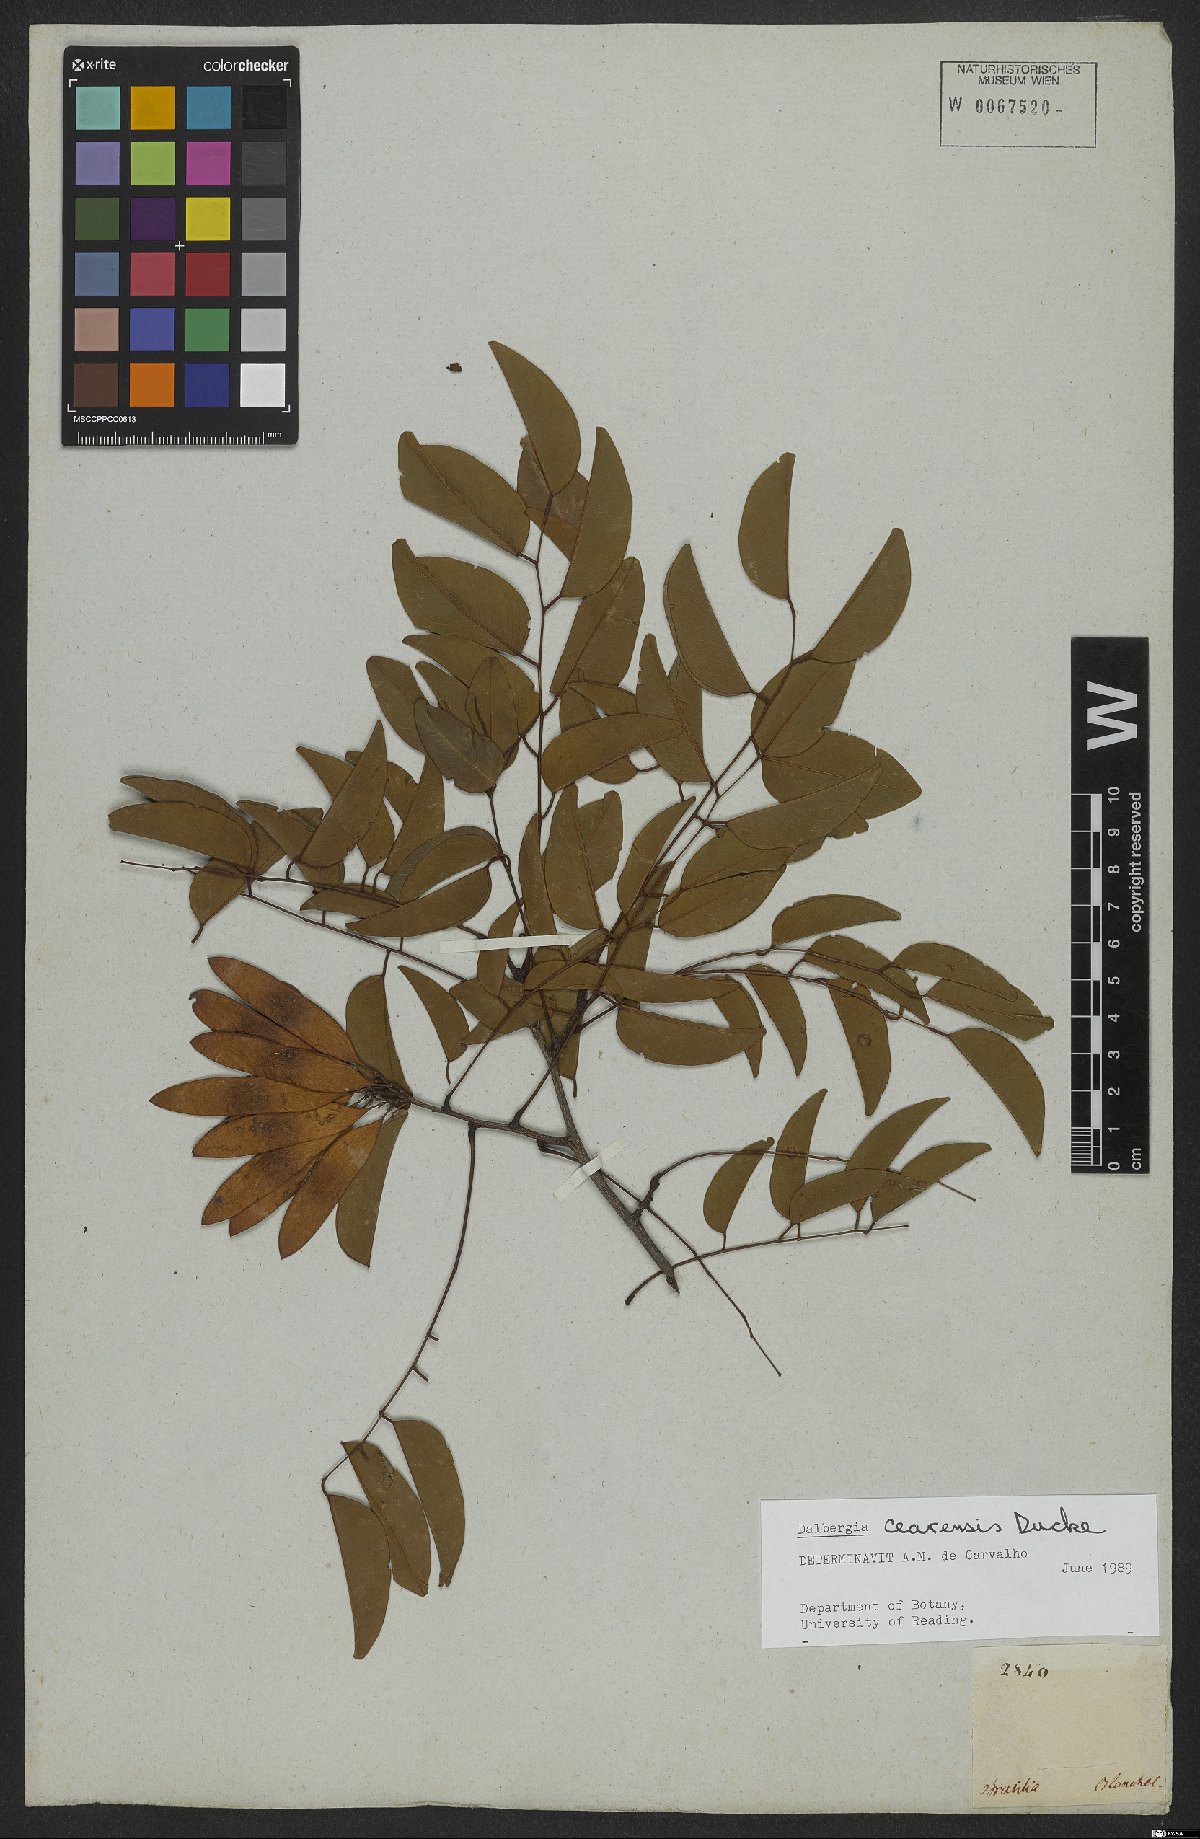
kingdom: Plantae
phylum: Tracheophyta
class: Magnoliopsida
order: Fabales
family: Fabaceae
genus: Dalbergia
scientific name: Dalbergia cearensis
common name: Brazilian-king-wood
